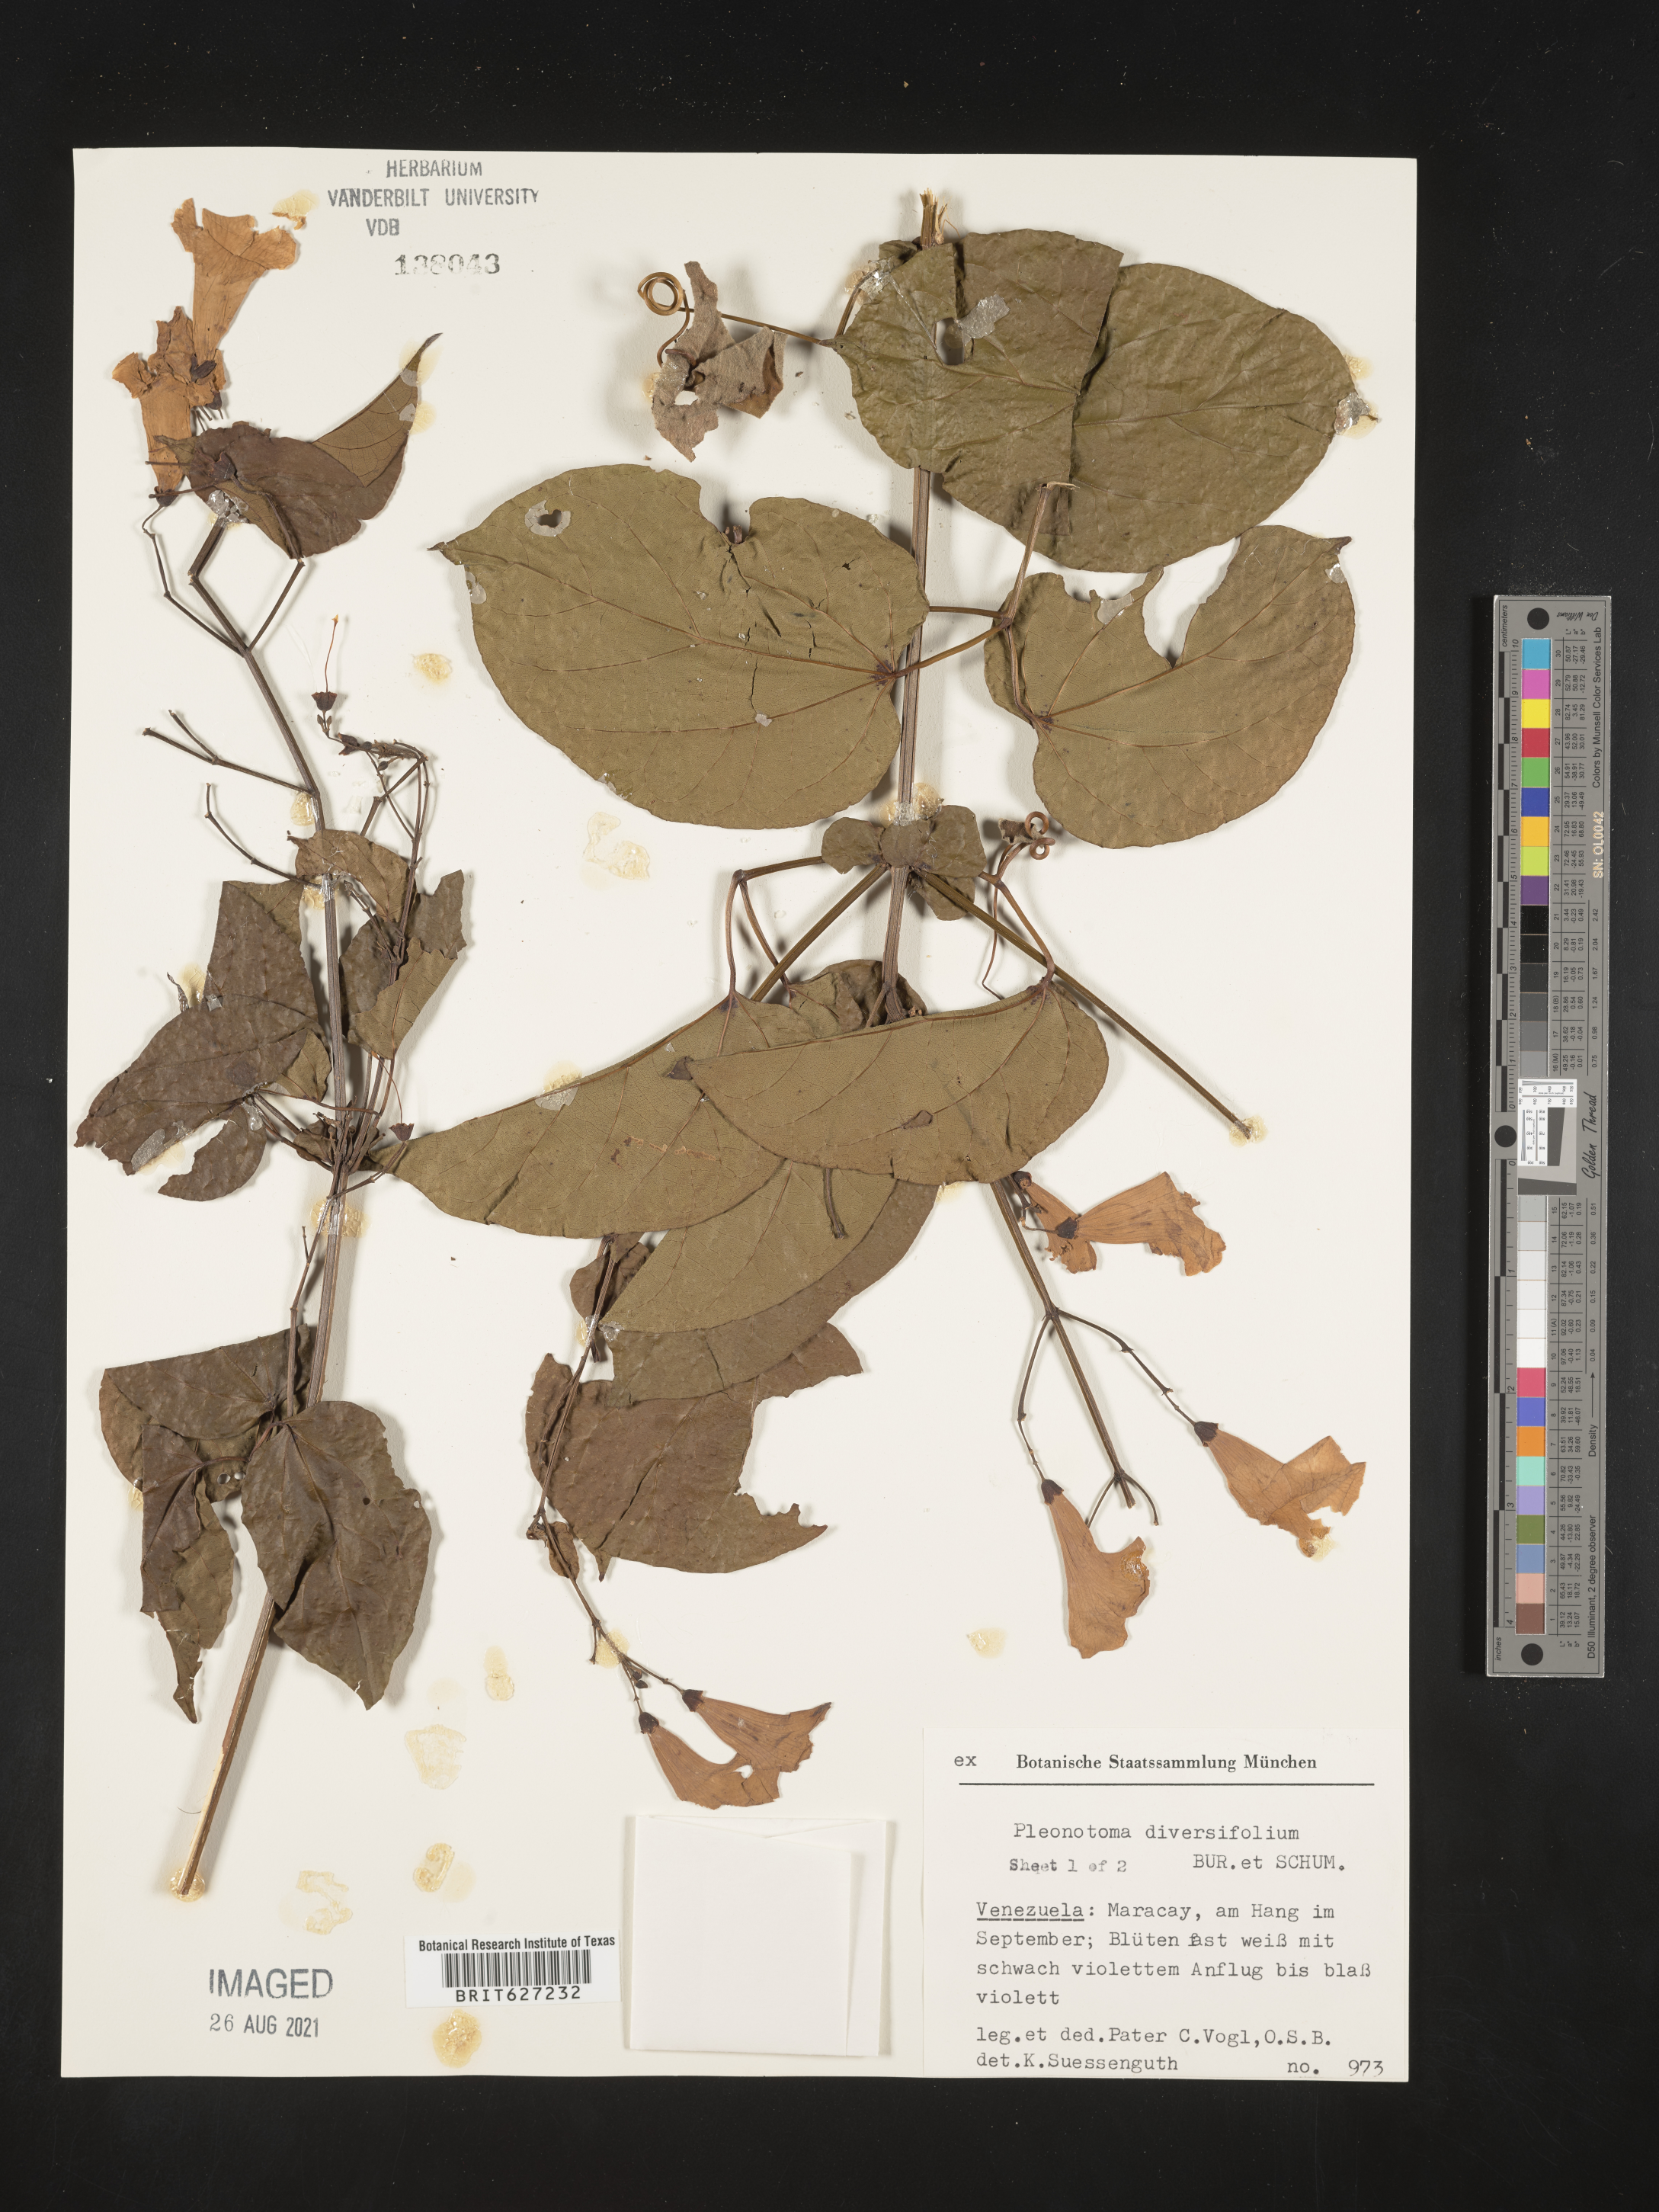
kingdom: Plantae
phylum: Tracheophyta
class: Magnoliopsida
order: Lamiales
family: Bignoniaceae
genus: Bignonia
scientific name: Bignonia diversifolia
